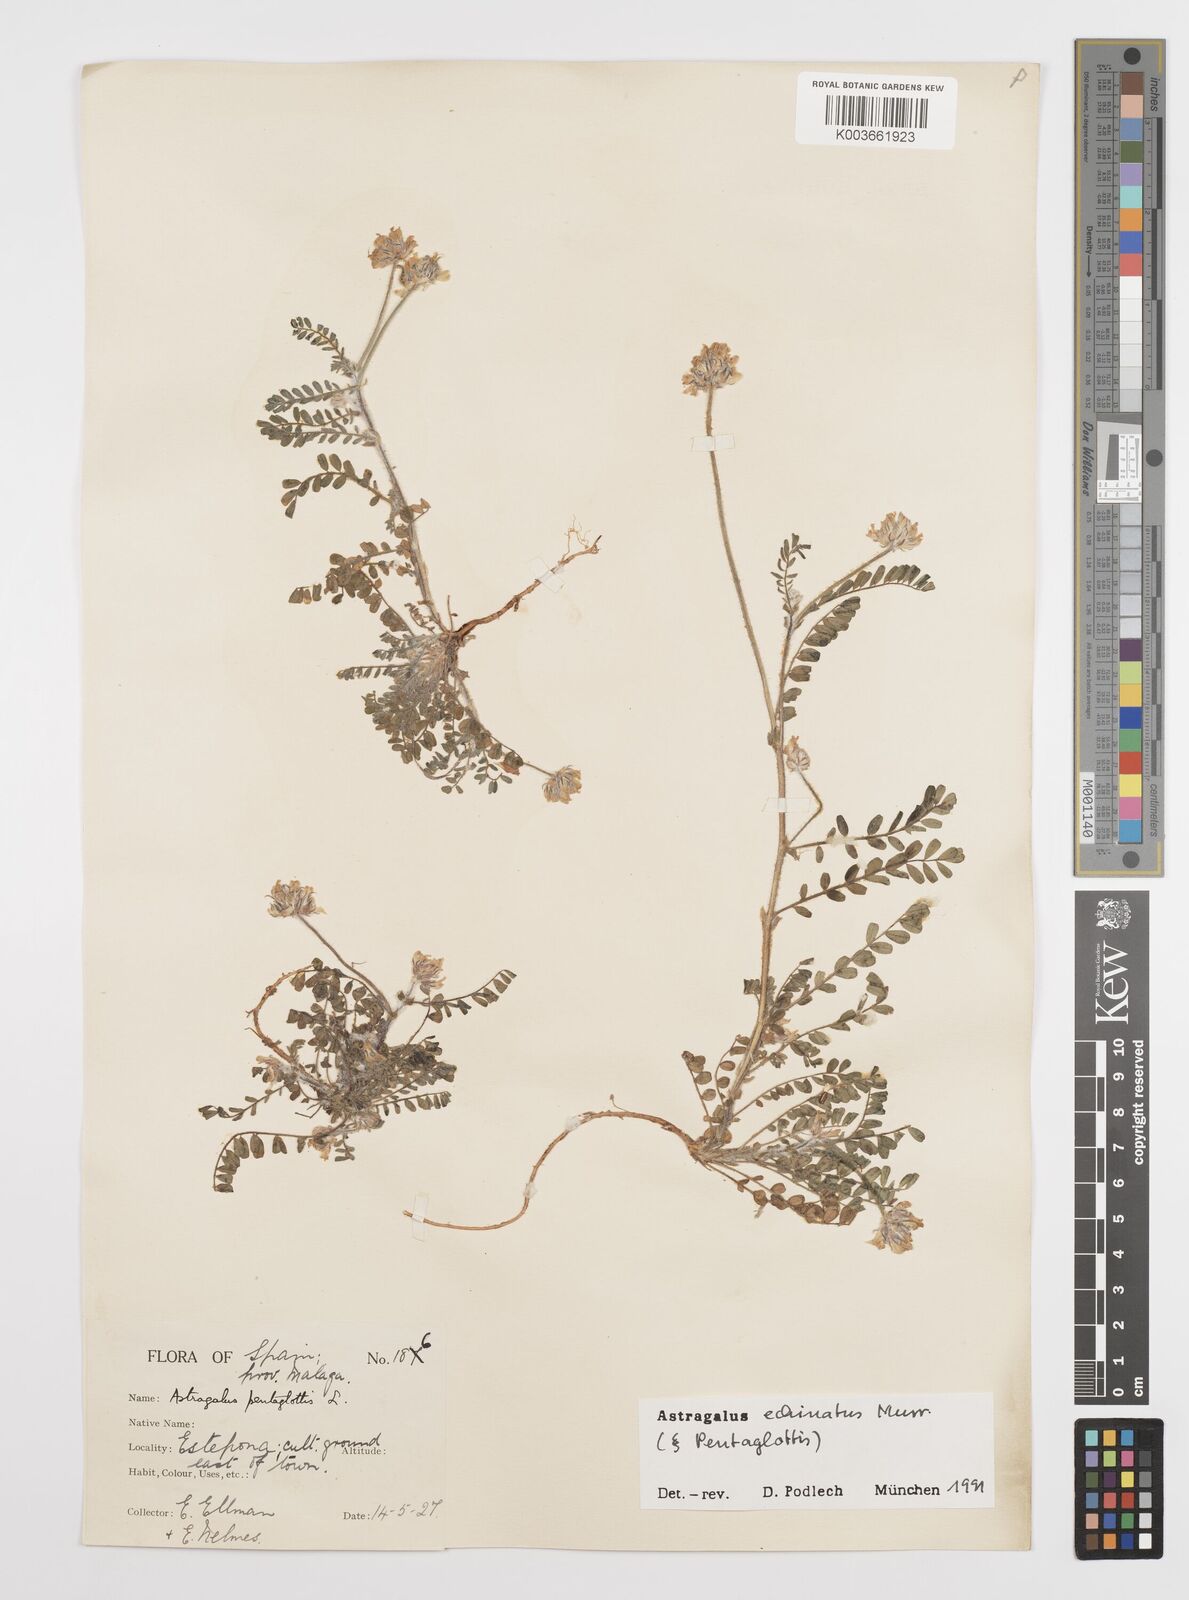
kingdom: Plantae
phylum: Tracheophyta
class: Magnoliopsida
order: Fabales
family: Fabaceae
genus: Astragalus
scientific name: Astragalus echinatus
